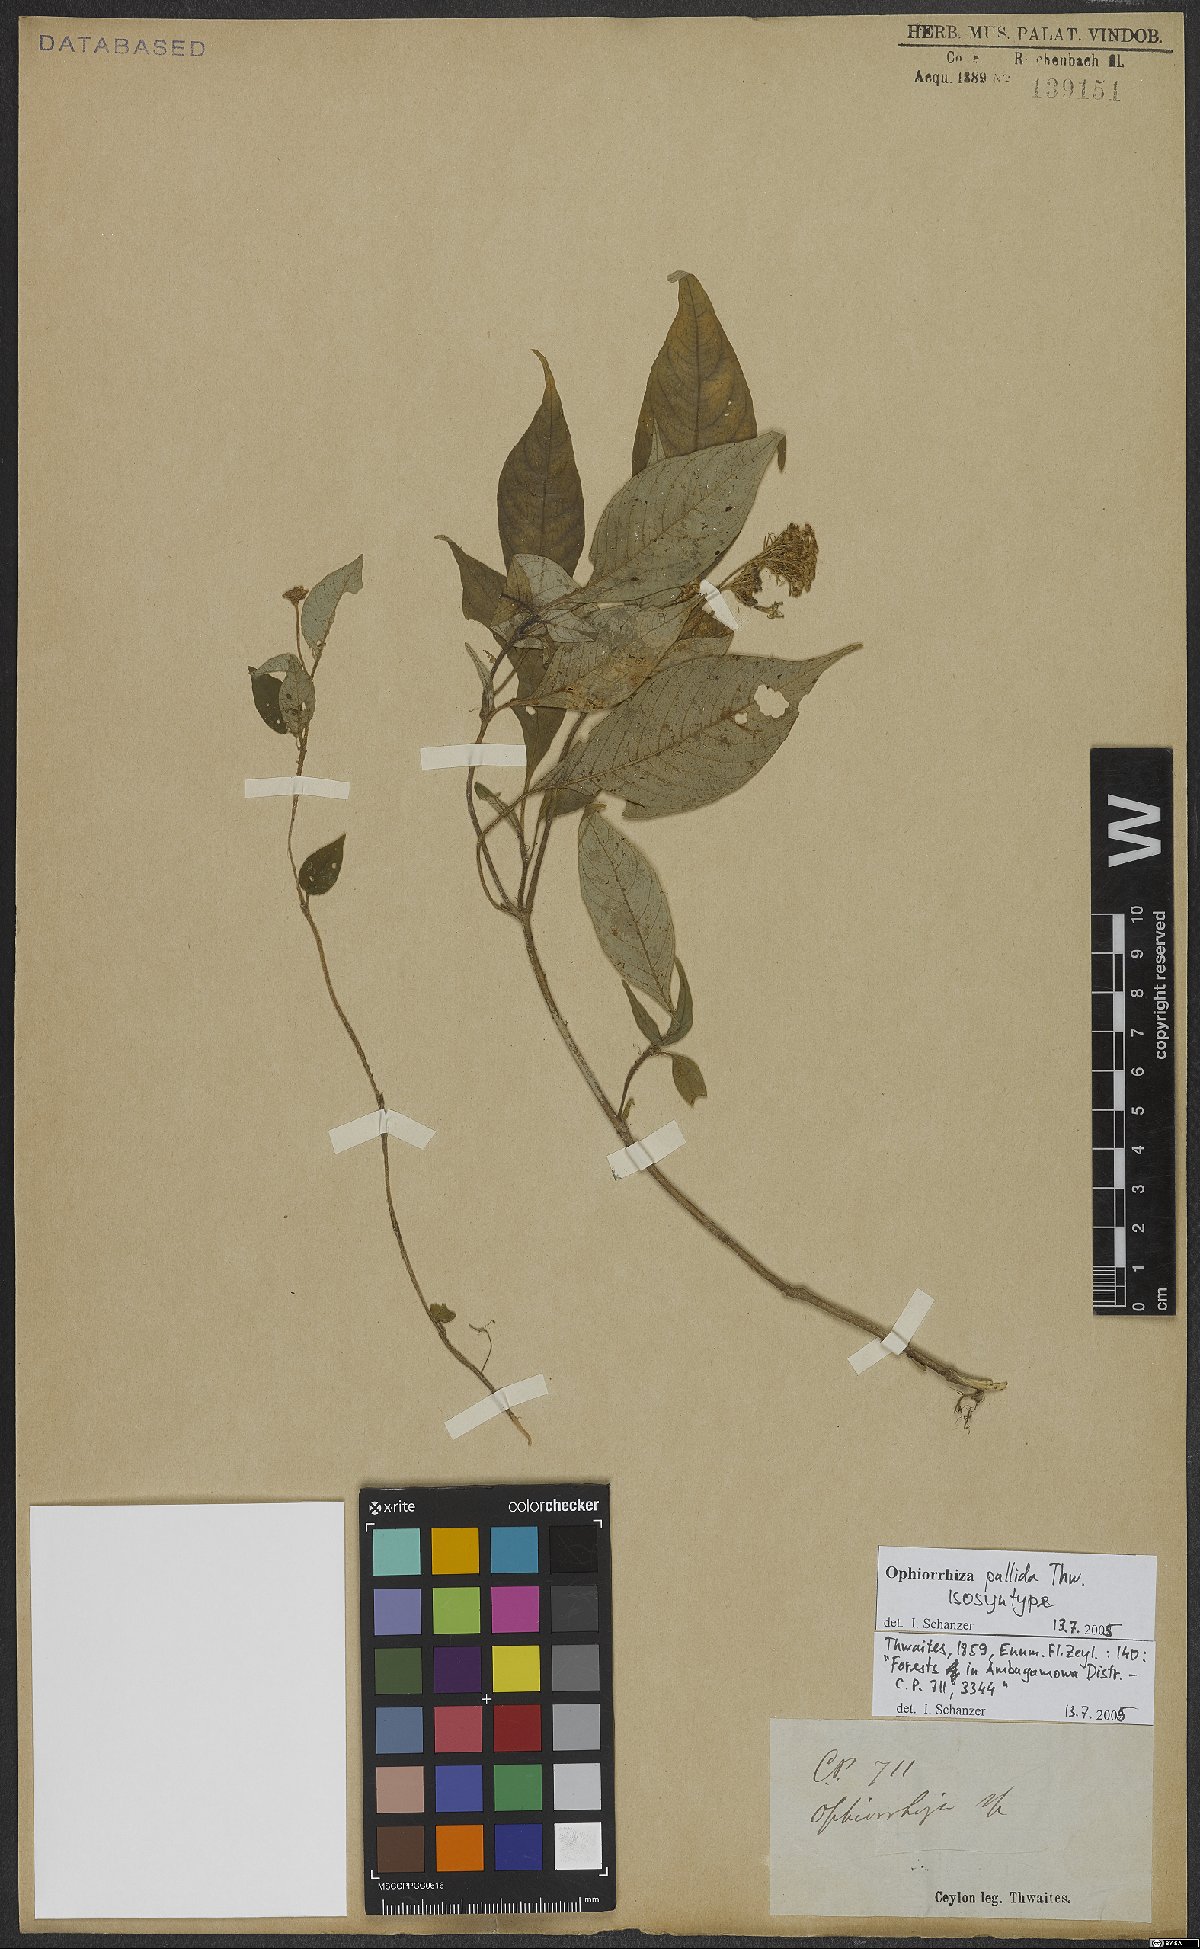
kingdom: Plantae
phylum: Tracheophyta
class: Magnoliopsida
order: Gentianales
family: Rubiaceae
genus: Ophiorrhiza
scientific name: Ophiorrhiza pallida
